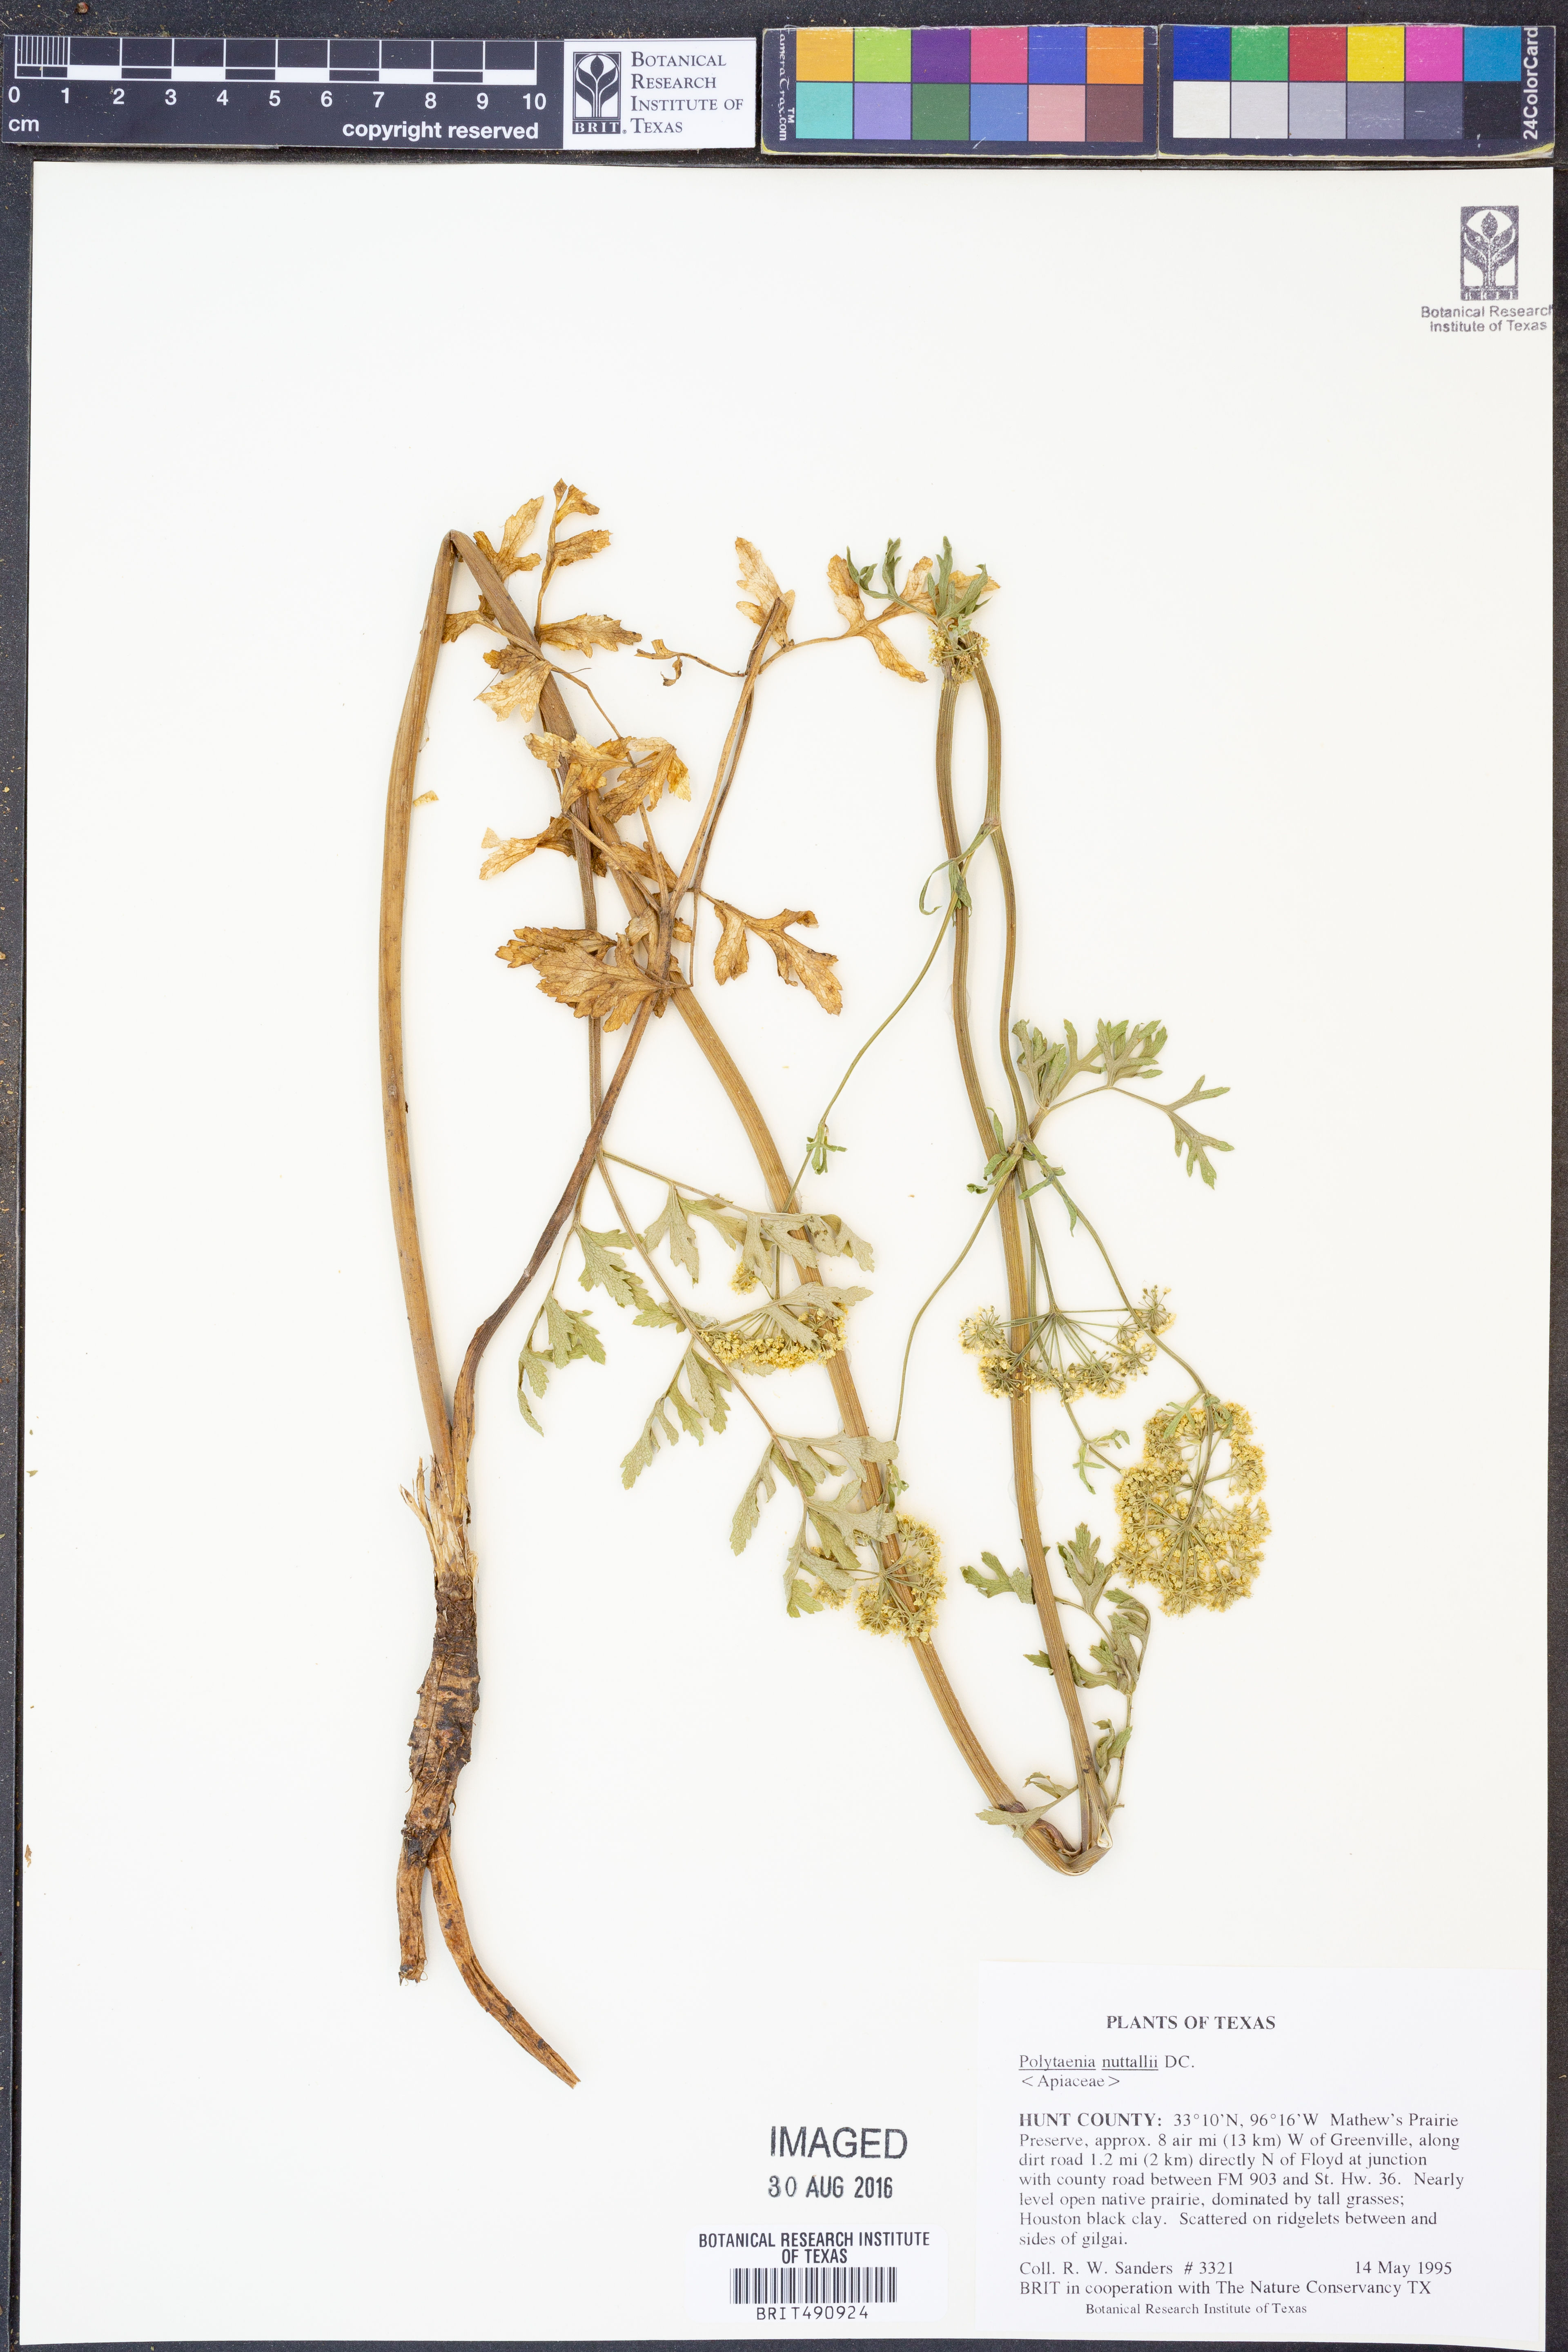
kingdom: Plantae
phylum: Tracheophyta
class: Magnoliopsida
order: Apiales
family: Apiaceae
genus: Polytaenia
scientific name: Polytaenia nuttallii
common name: Prairie-parsley
